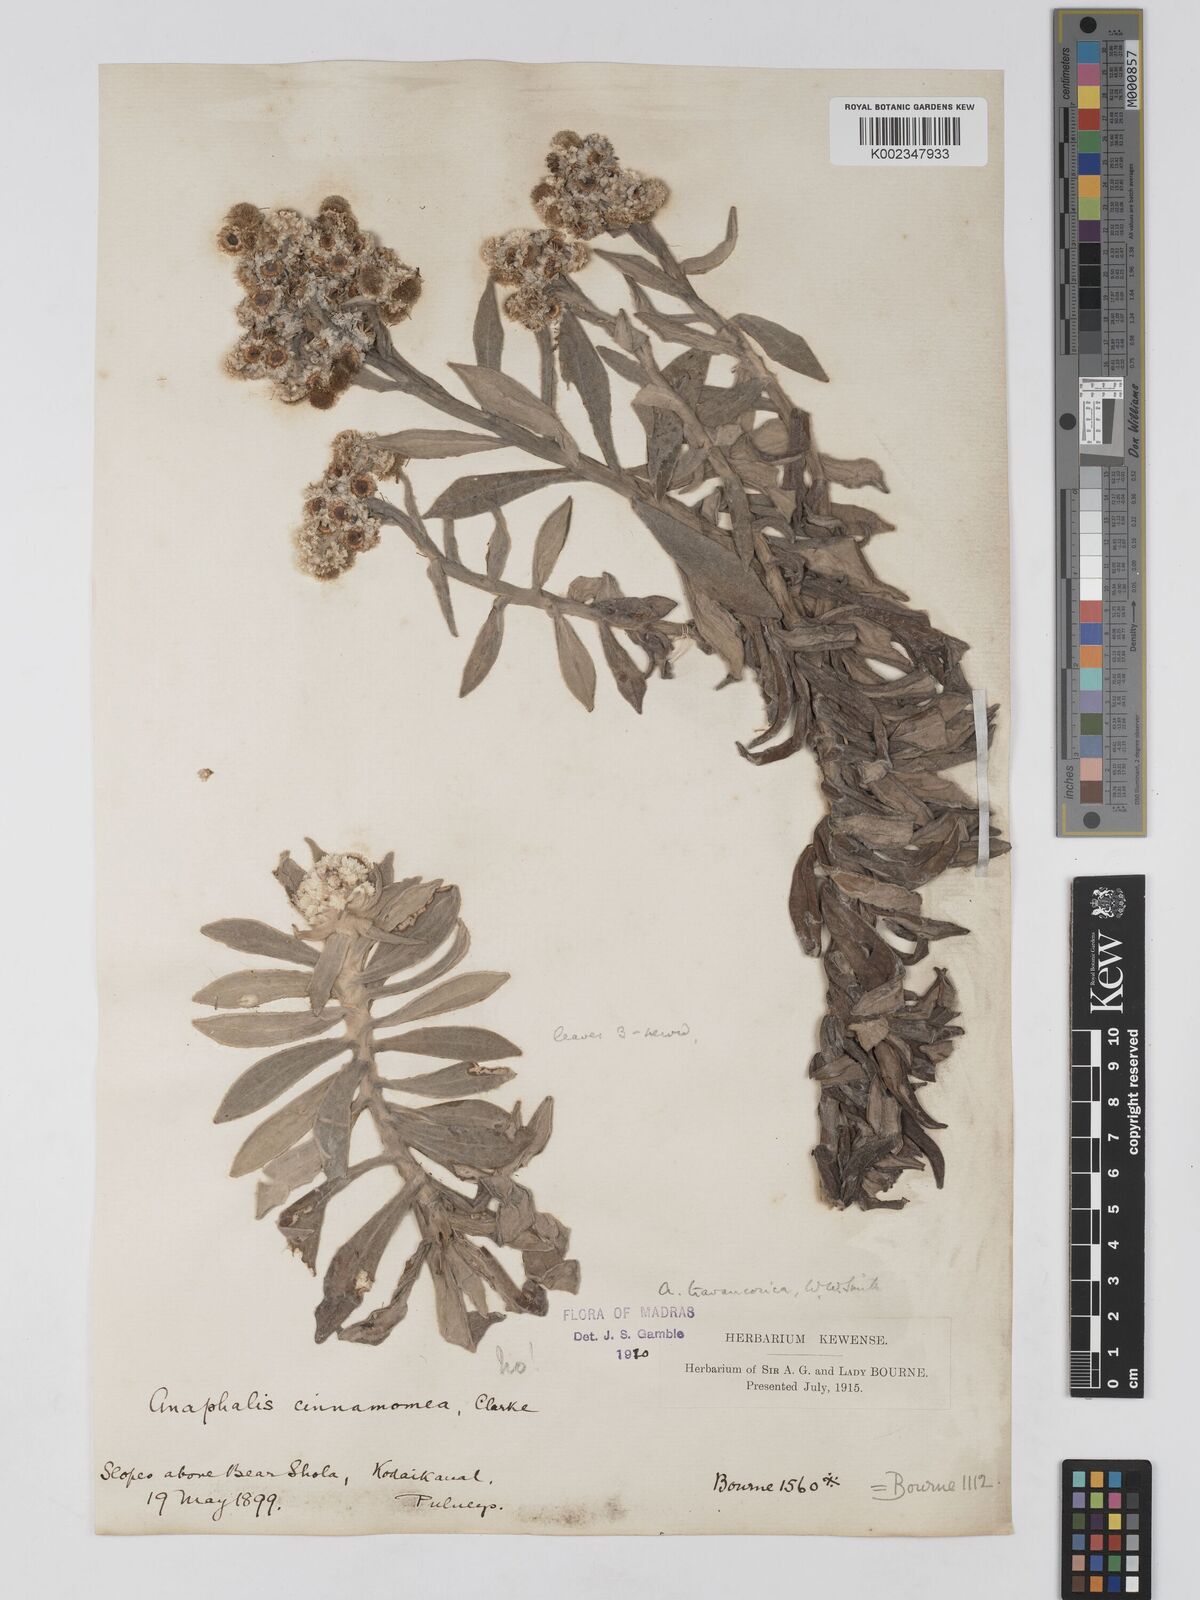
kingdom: Plantae
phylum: Tracheophyta
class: Magnoliopsida
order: Asterales
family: Asteraceae
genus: Anaphalis
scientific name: Anaphalis travancorica
